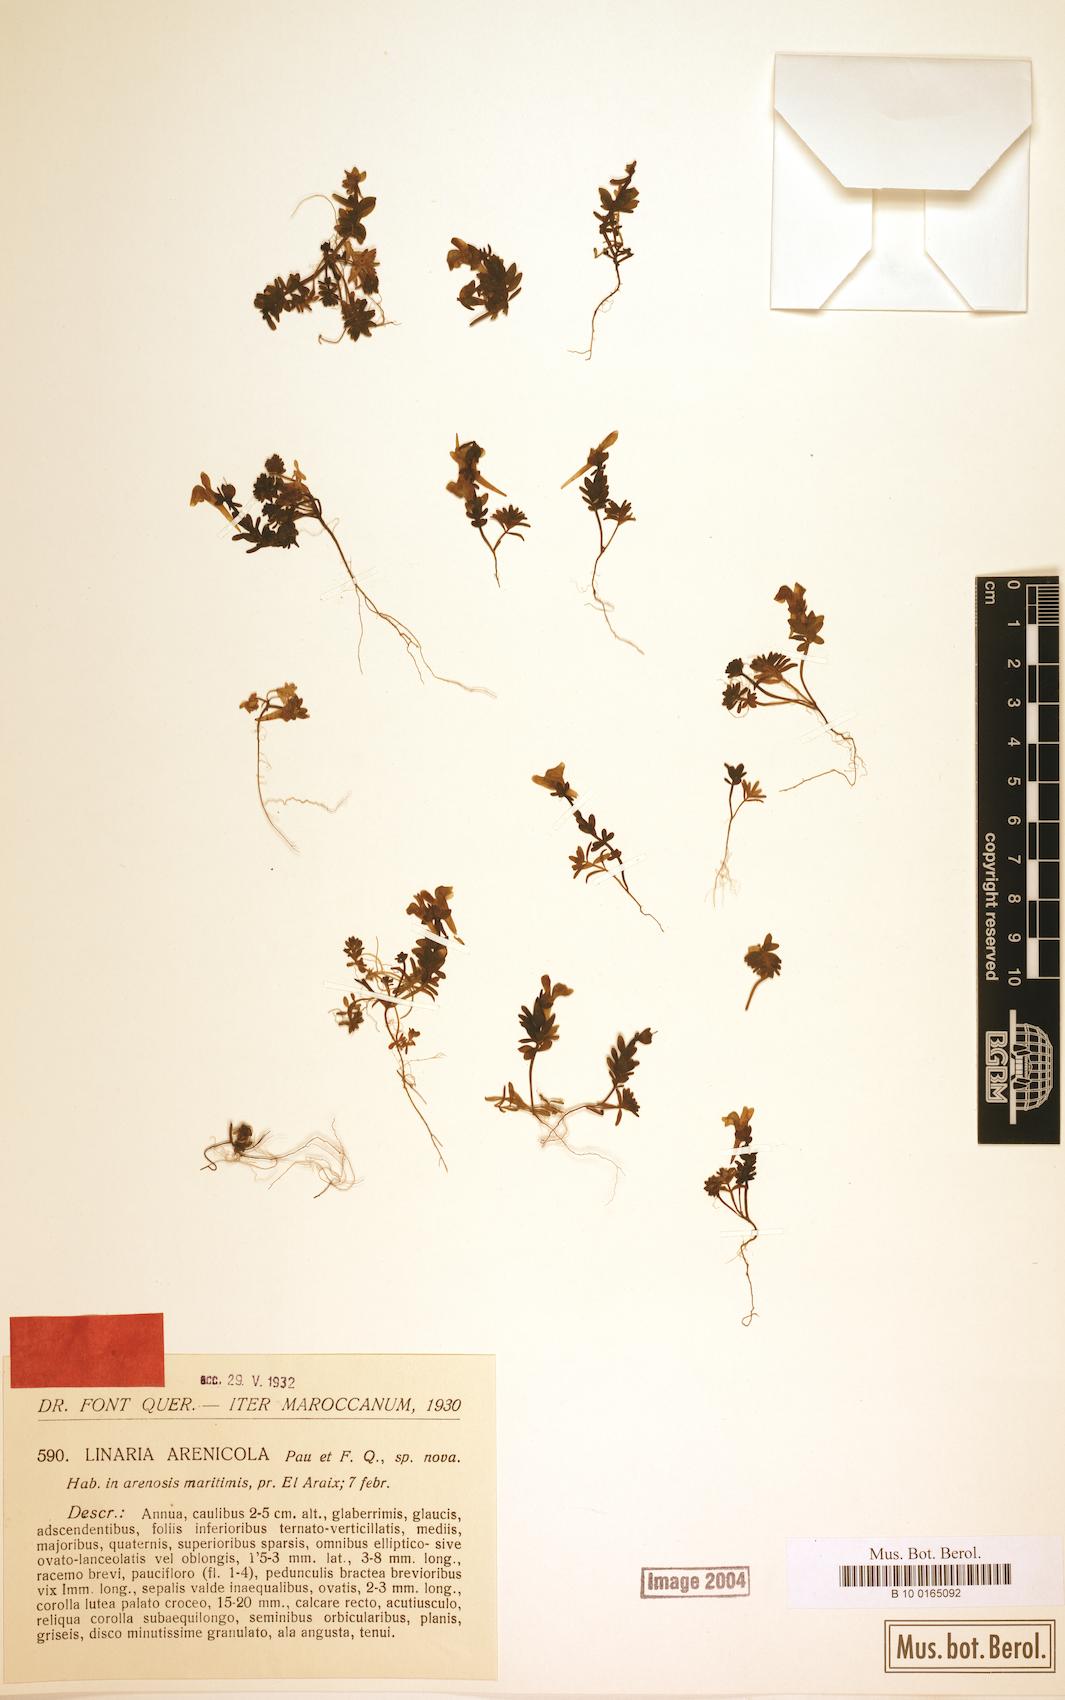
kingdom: Plantae
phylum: Tracheophyta
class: Magnoliopsida
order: Lamiales
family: Plantaginaceae
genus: Linaria
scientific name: Linaria arenicola
